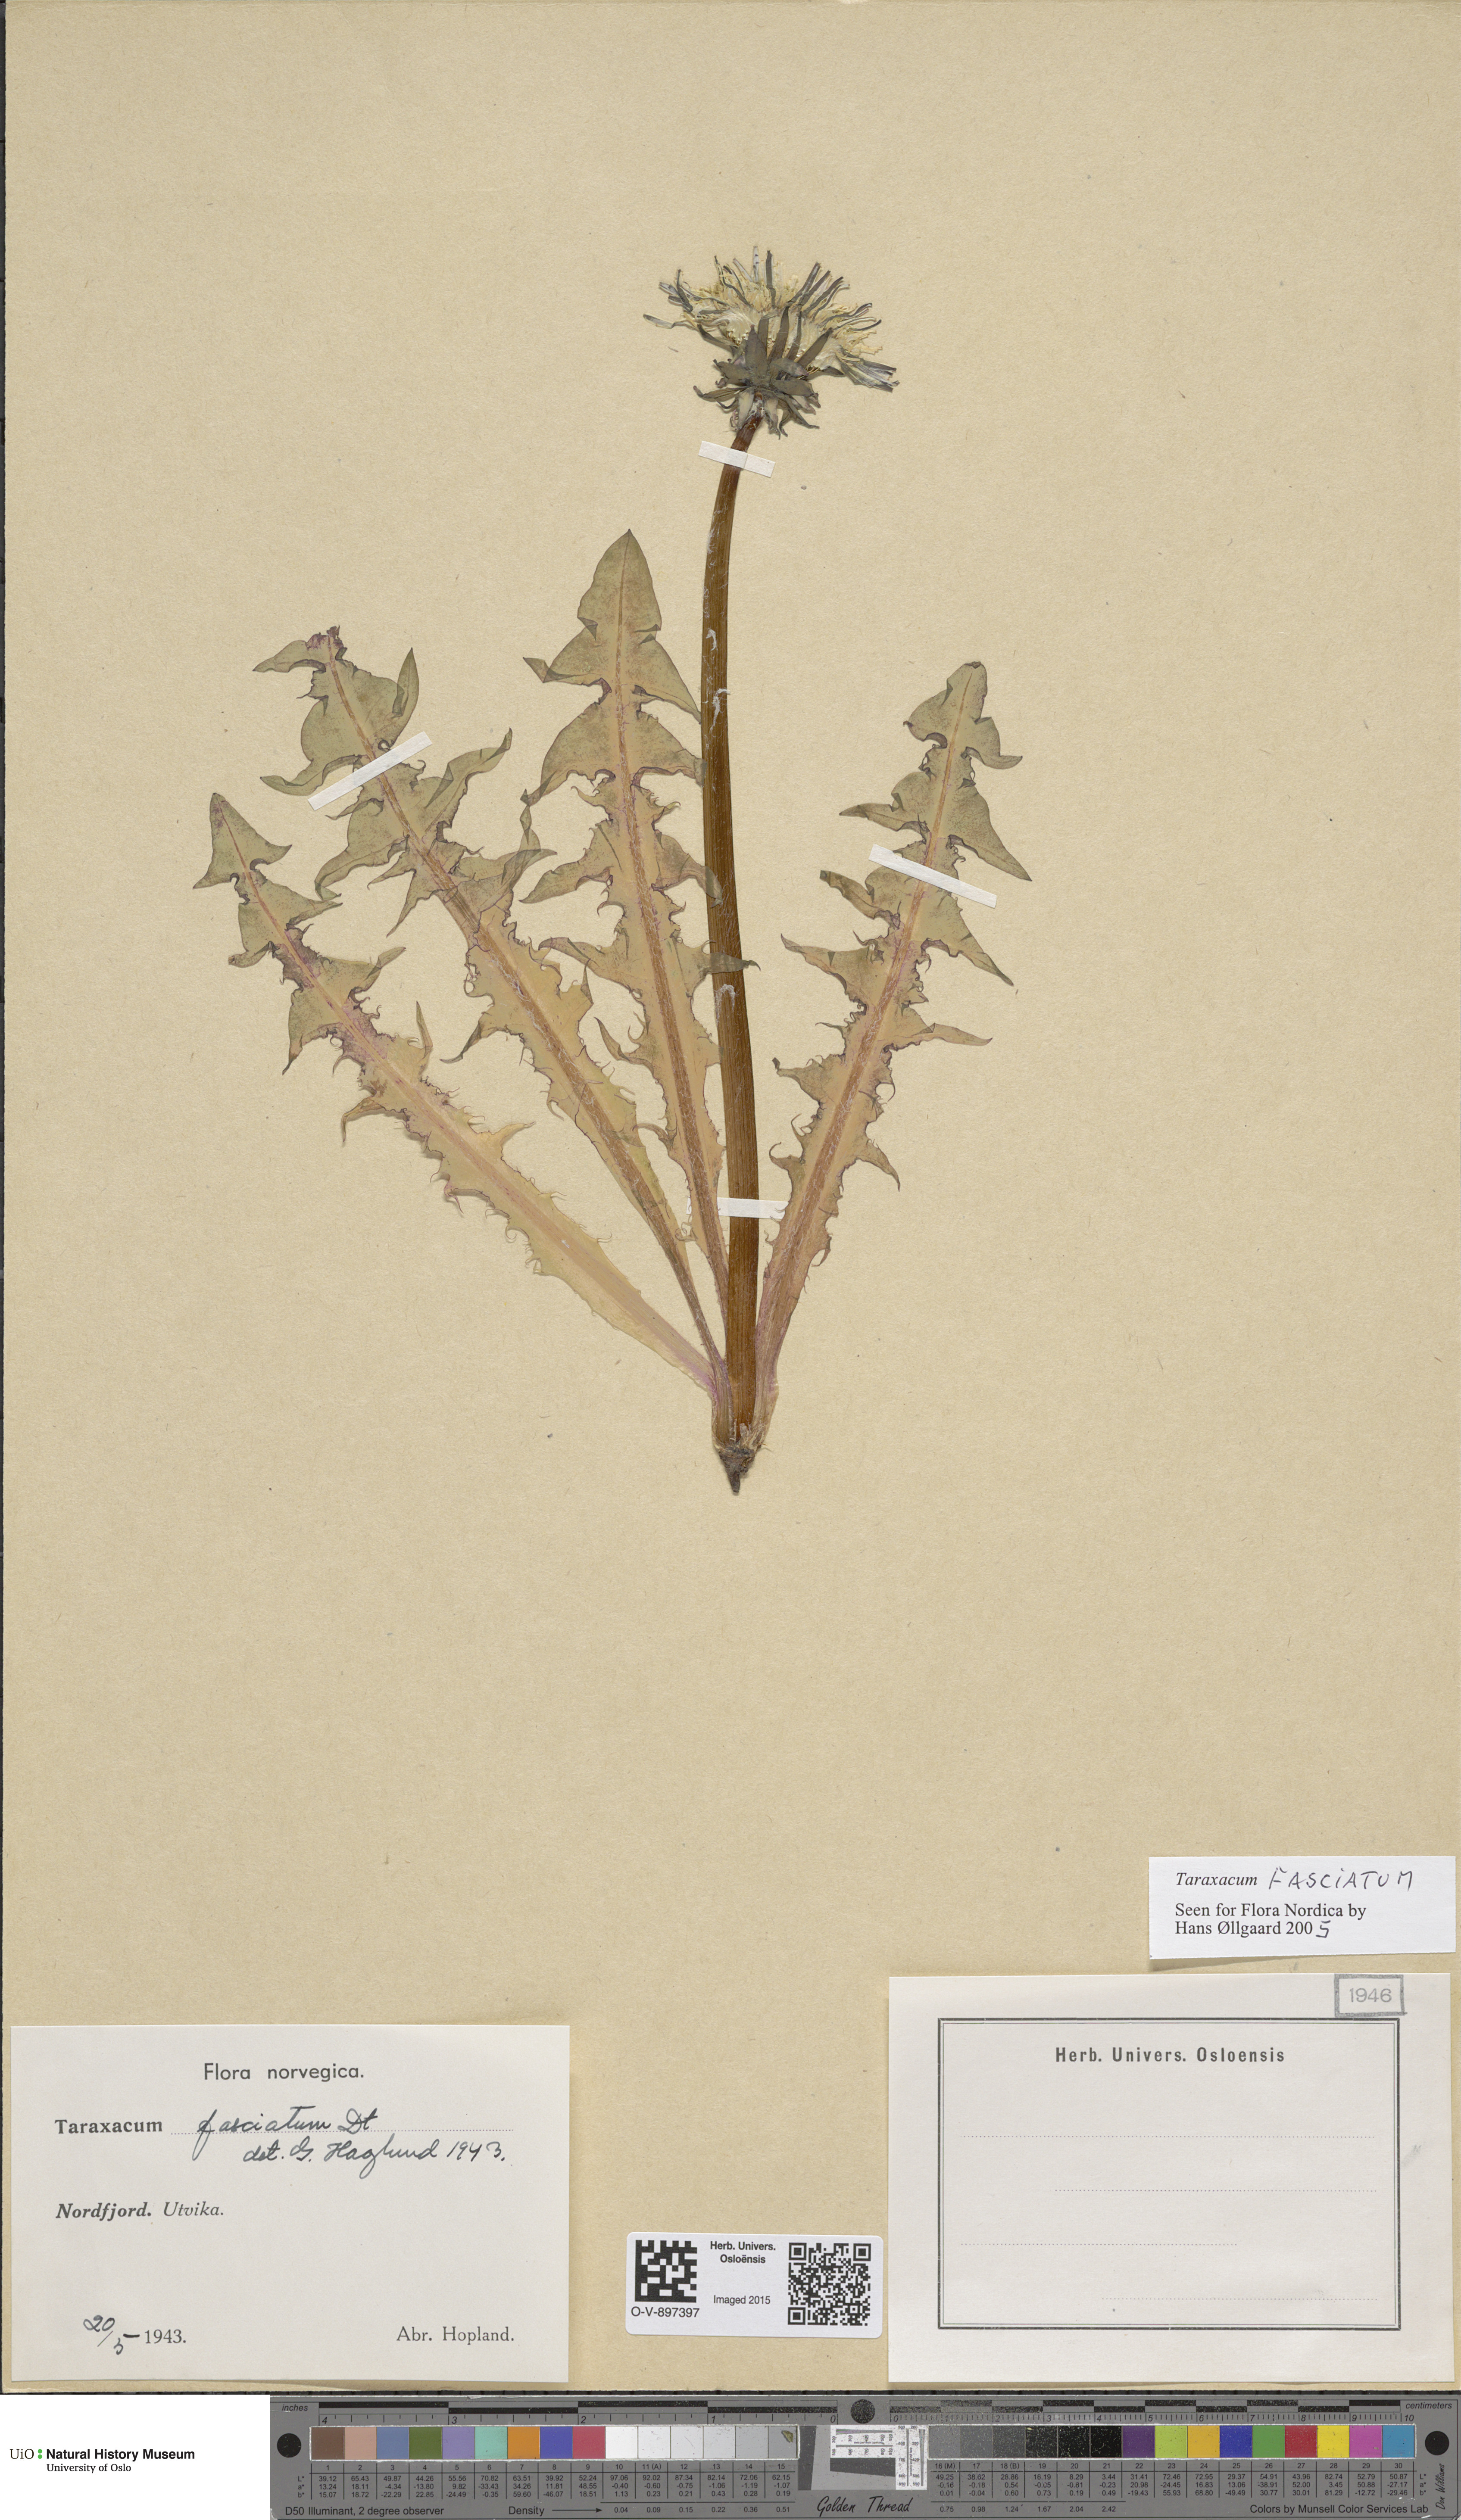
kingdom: Plantae
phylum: Tracheophyta
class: Magnoliopsida
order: Asterales
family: Asteraceae
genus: Taraxacum
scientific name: Taraxacum fasciatum
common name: Dense-bracted dandelion
